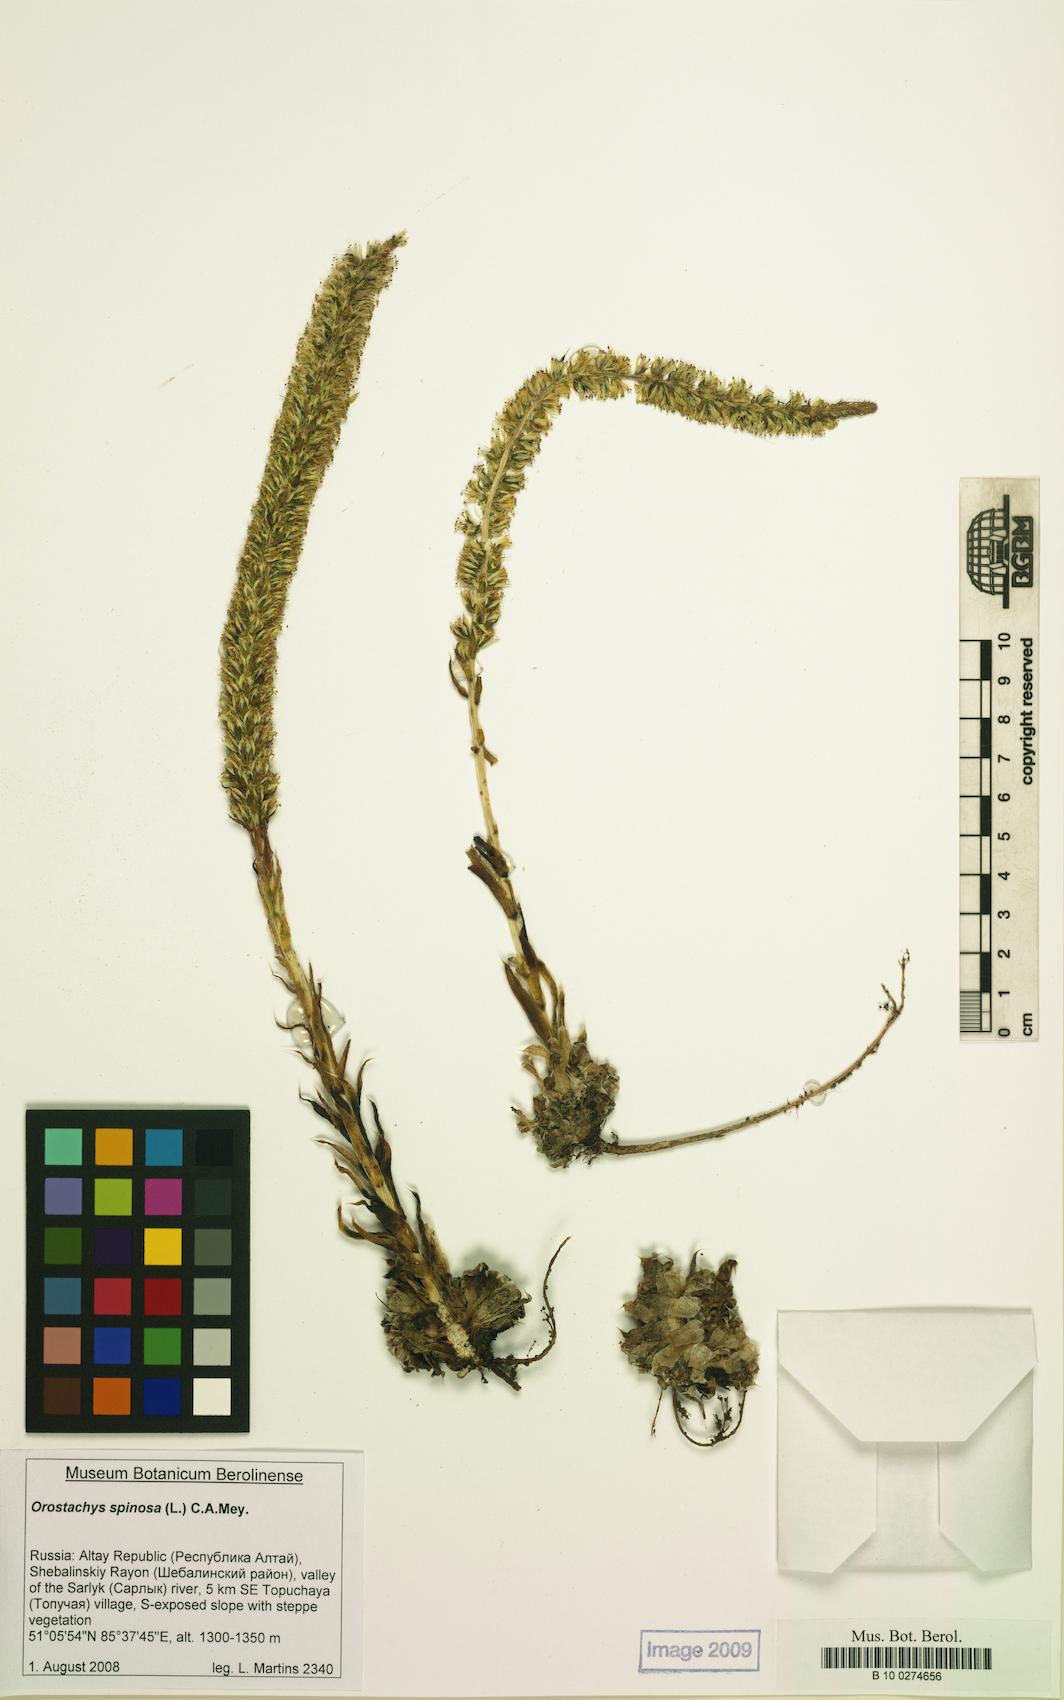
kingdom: Plantae
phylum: Tracheophyta
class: Magnoliopsida
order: Saxifragales
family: Crassulaceae
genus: Orostachys
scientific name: Orostachys spinosa
